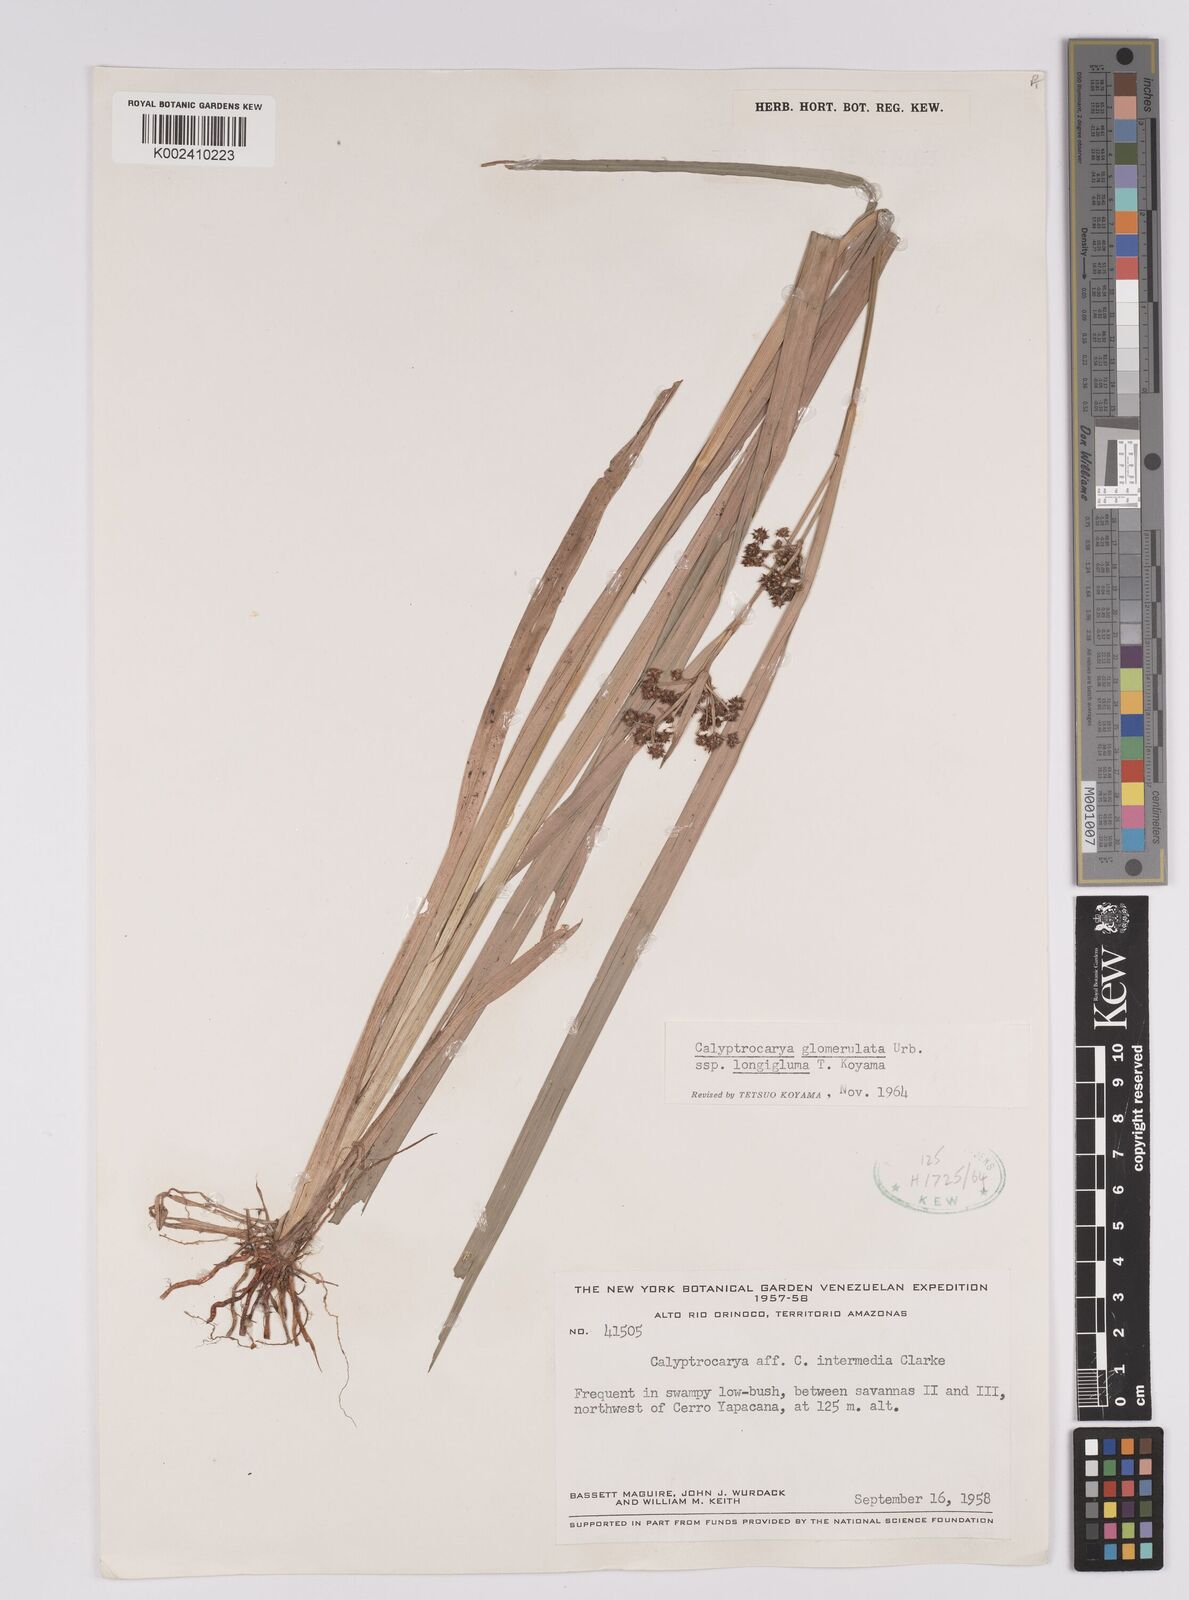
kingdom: Plantae
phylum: Tracheophyta
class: Liliopsida
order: Poales
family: Cyperaceae
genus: Calyptrocarya
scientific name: Calyptrocarya glomerulata
